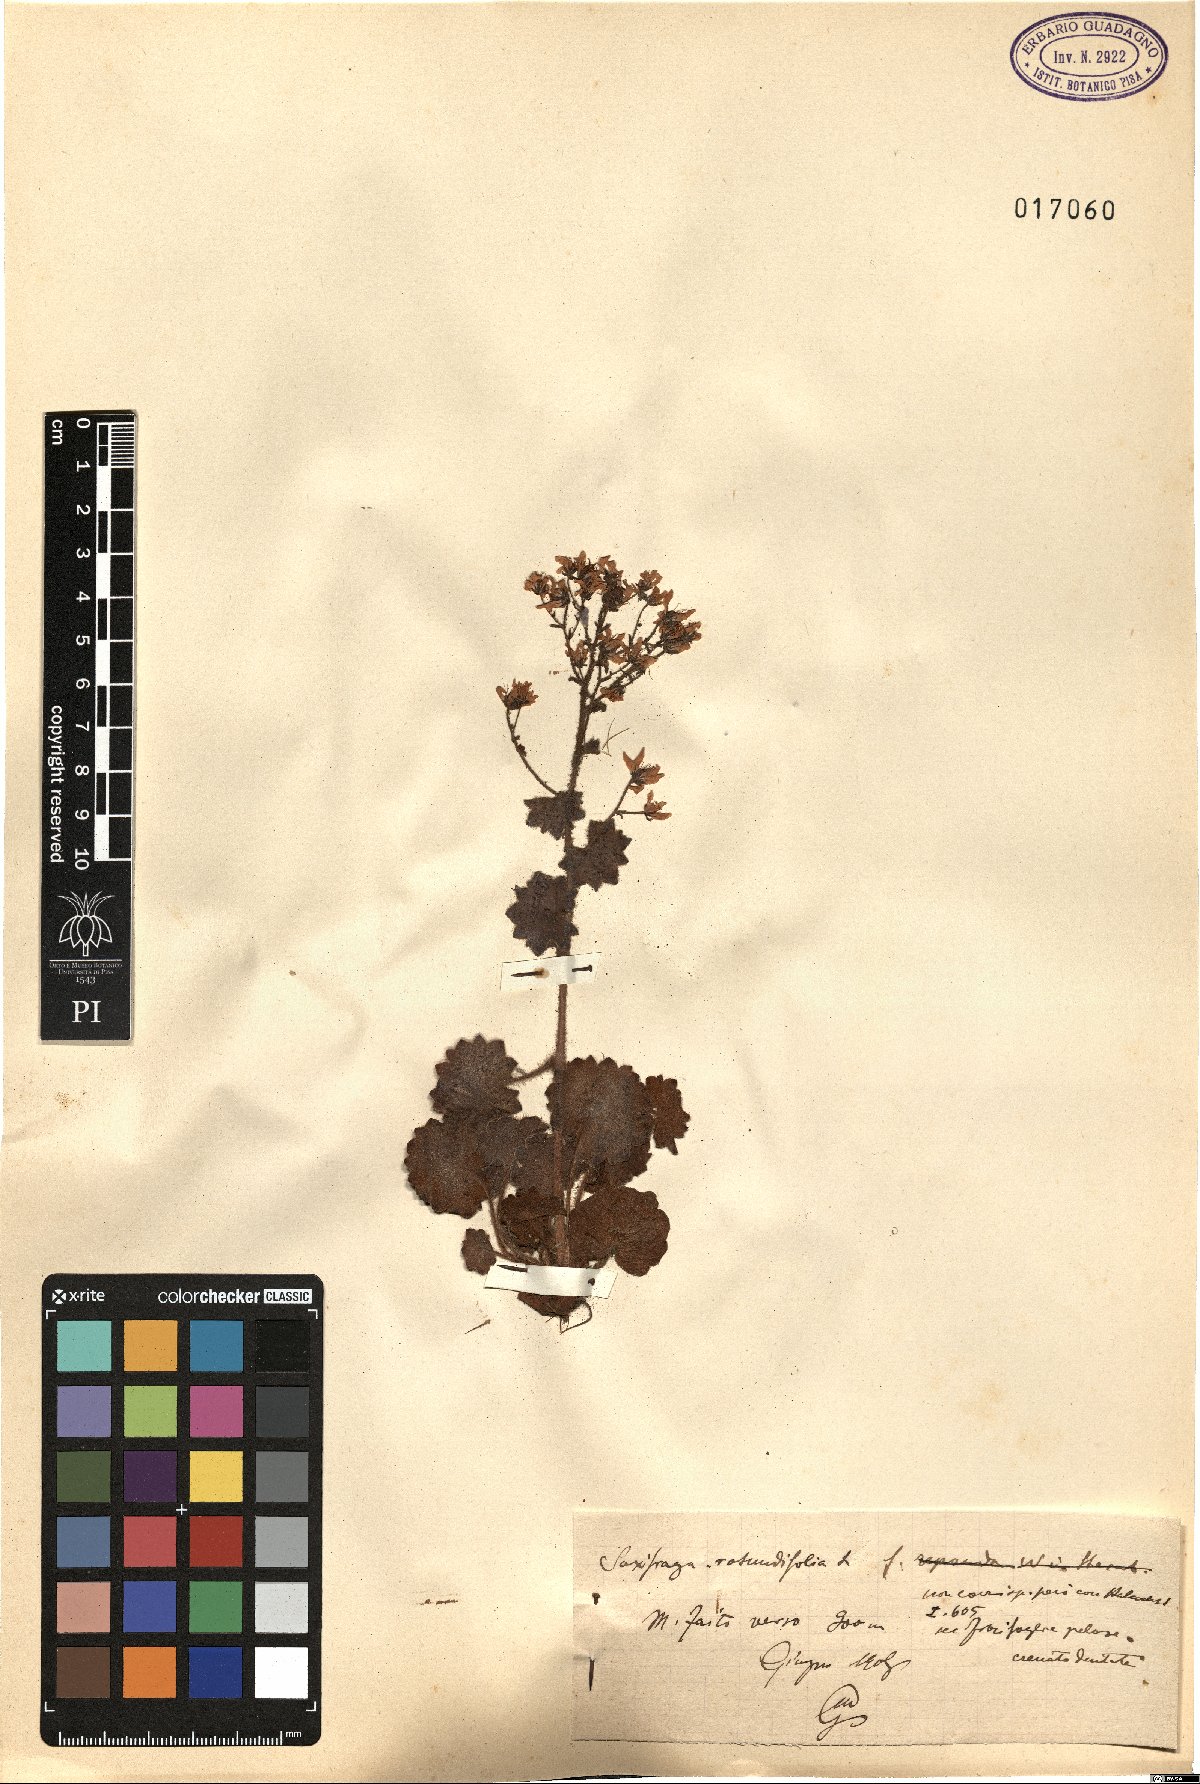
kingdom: Plantae
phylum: Tracheophyta
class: Magnoliopsida
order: Saxifragales
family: Saxifragaceae
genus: Saxifraga
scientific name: Saxifraga rotundifolia
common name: Round-leaved saxifrage
